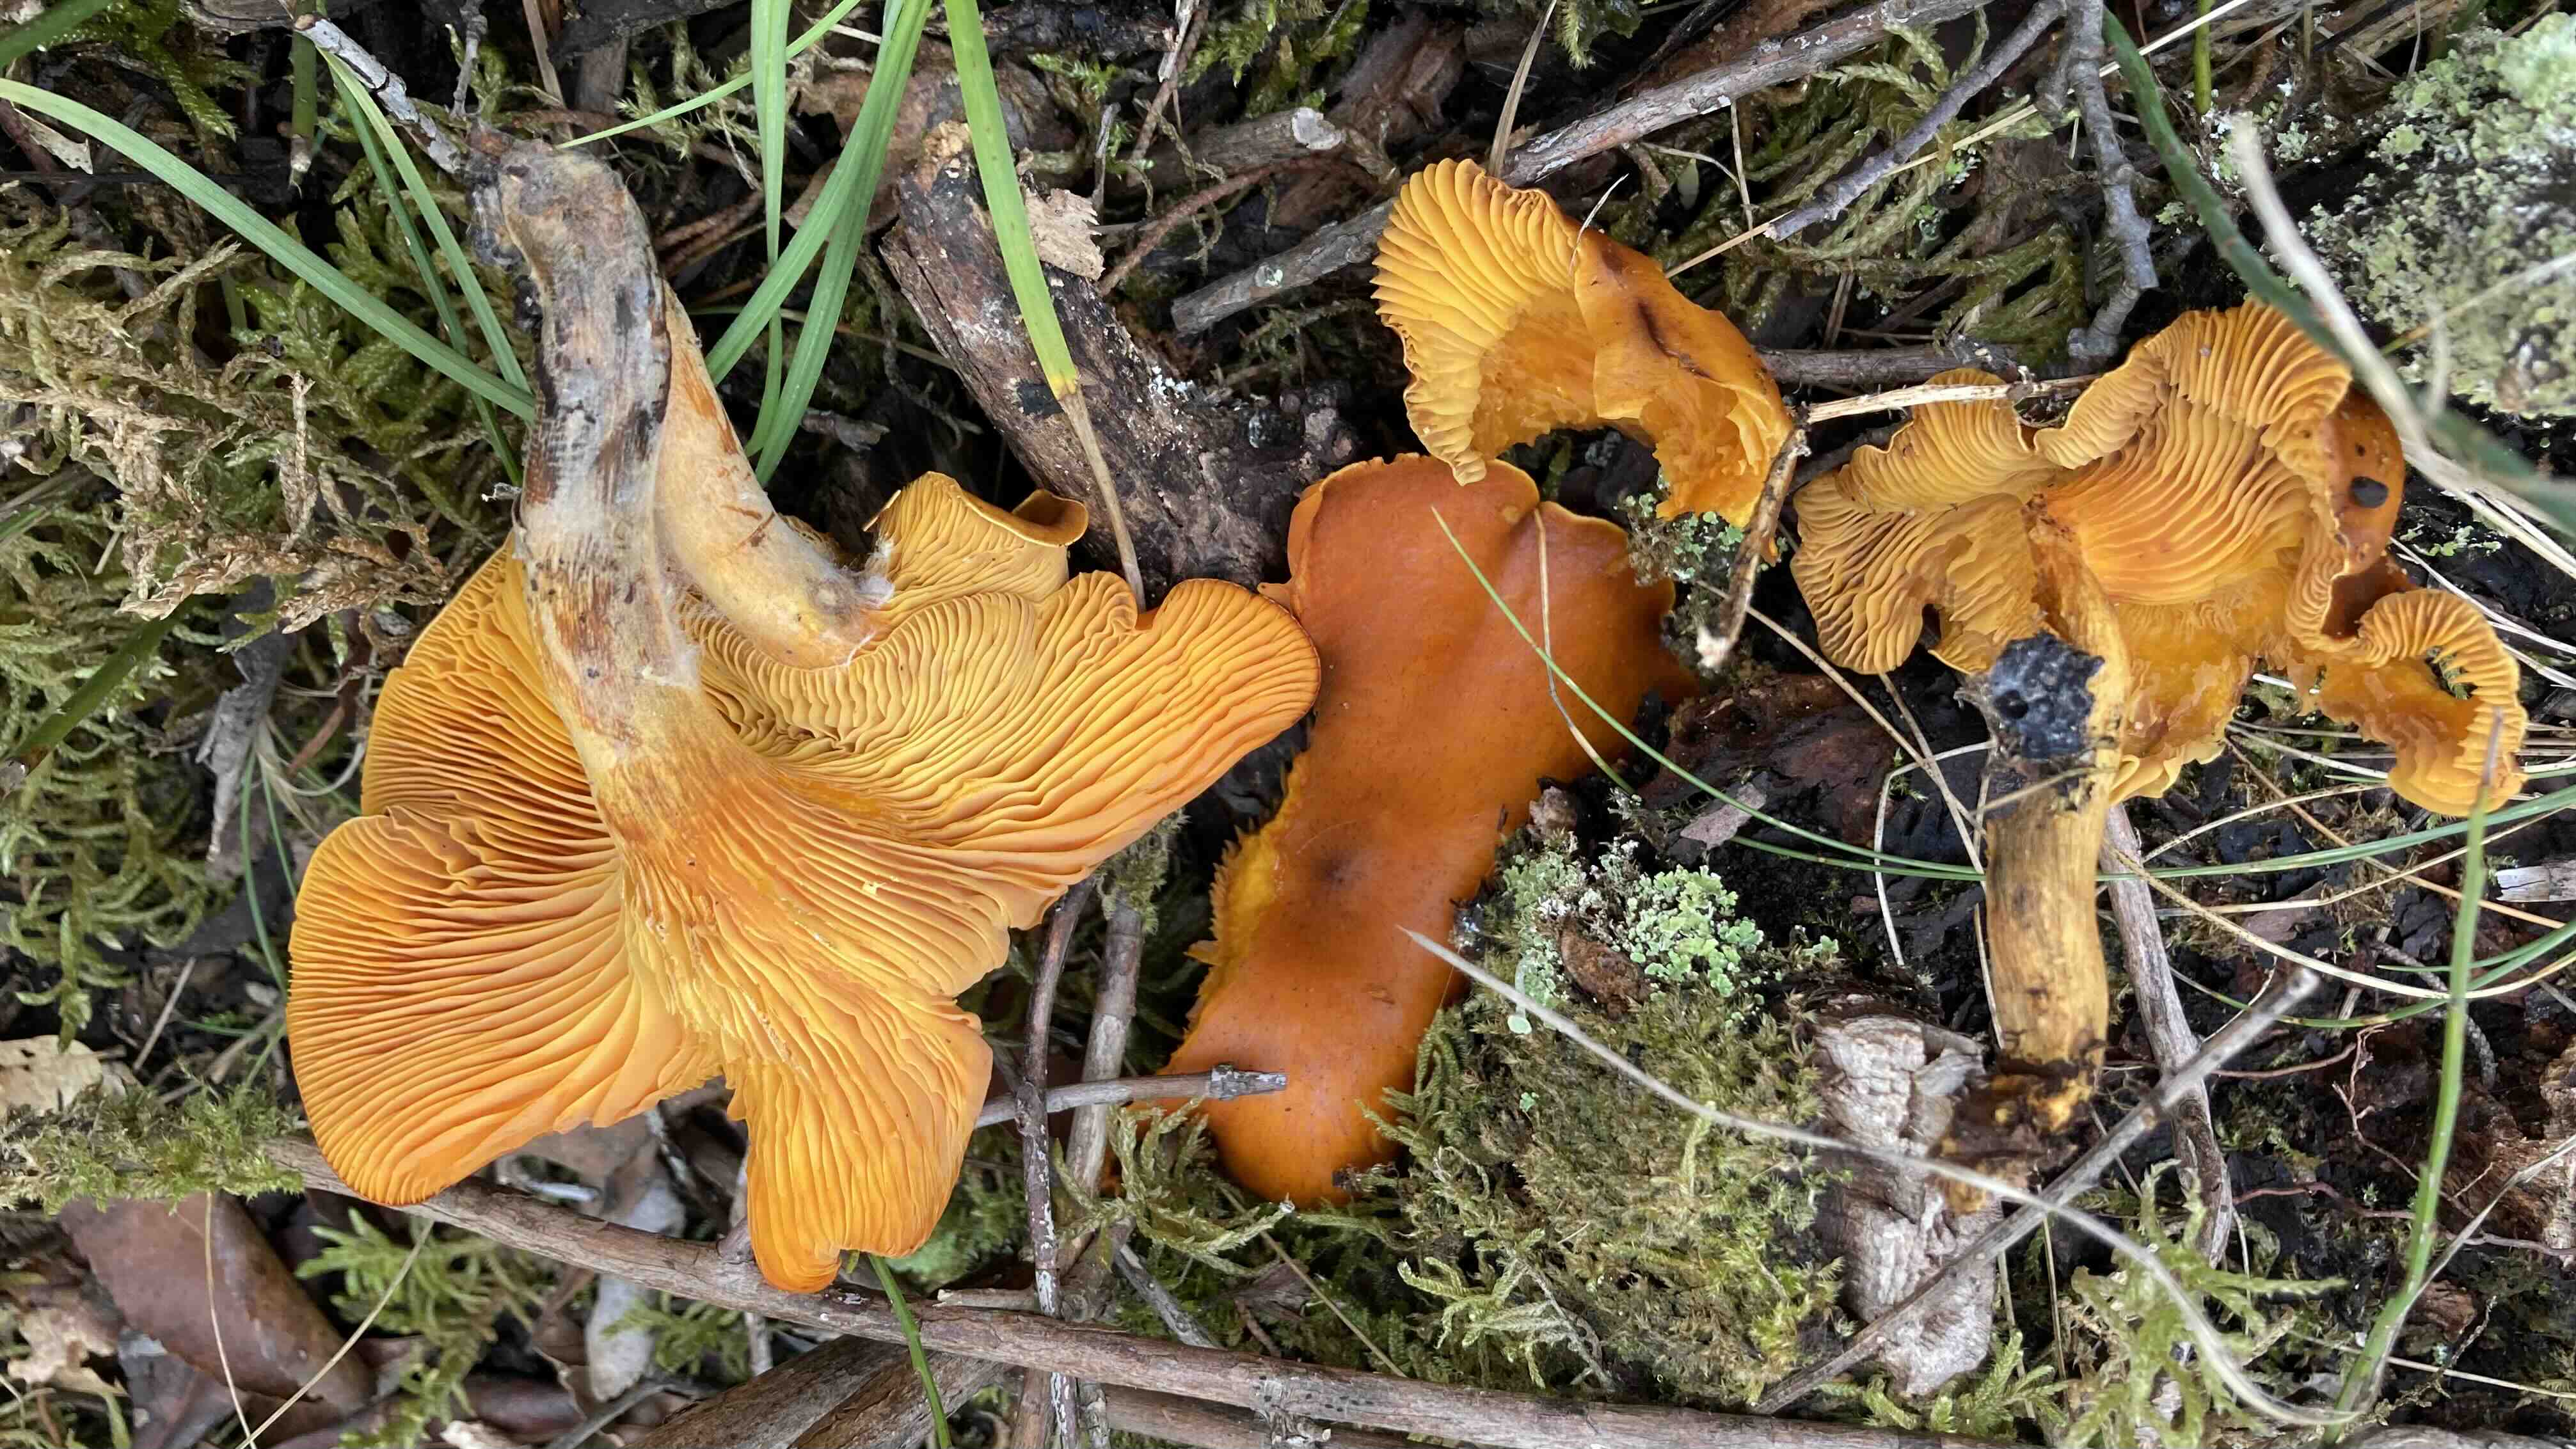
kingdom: Fungi
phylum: Basidiomycota
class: Agaricomycetes
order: Agaricales
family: Omphalotaceae
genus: Omphalotus
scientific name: Omphalotus
